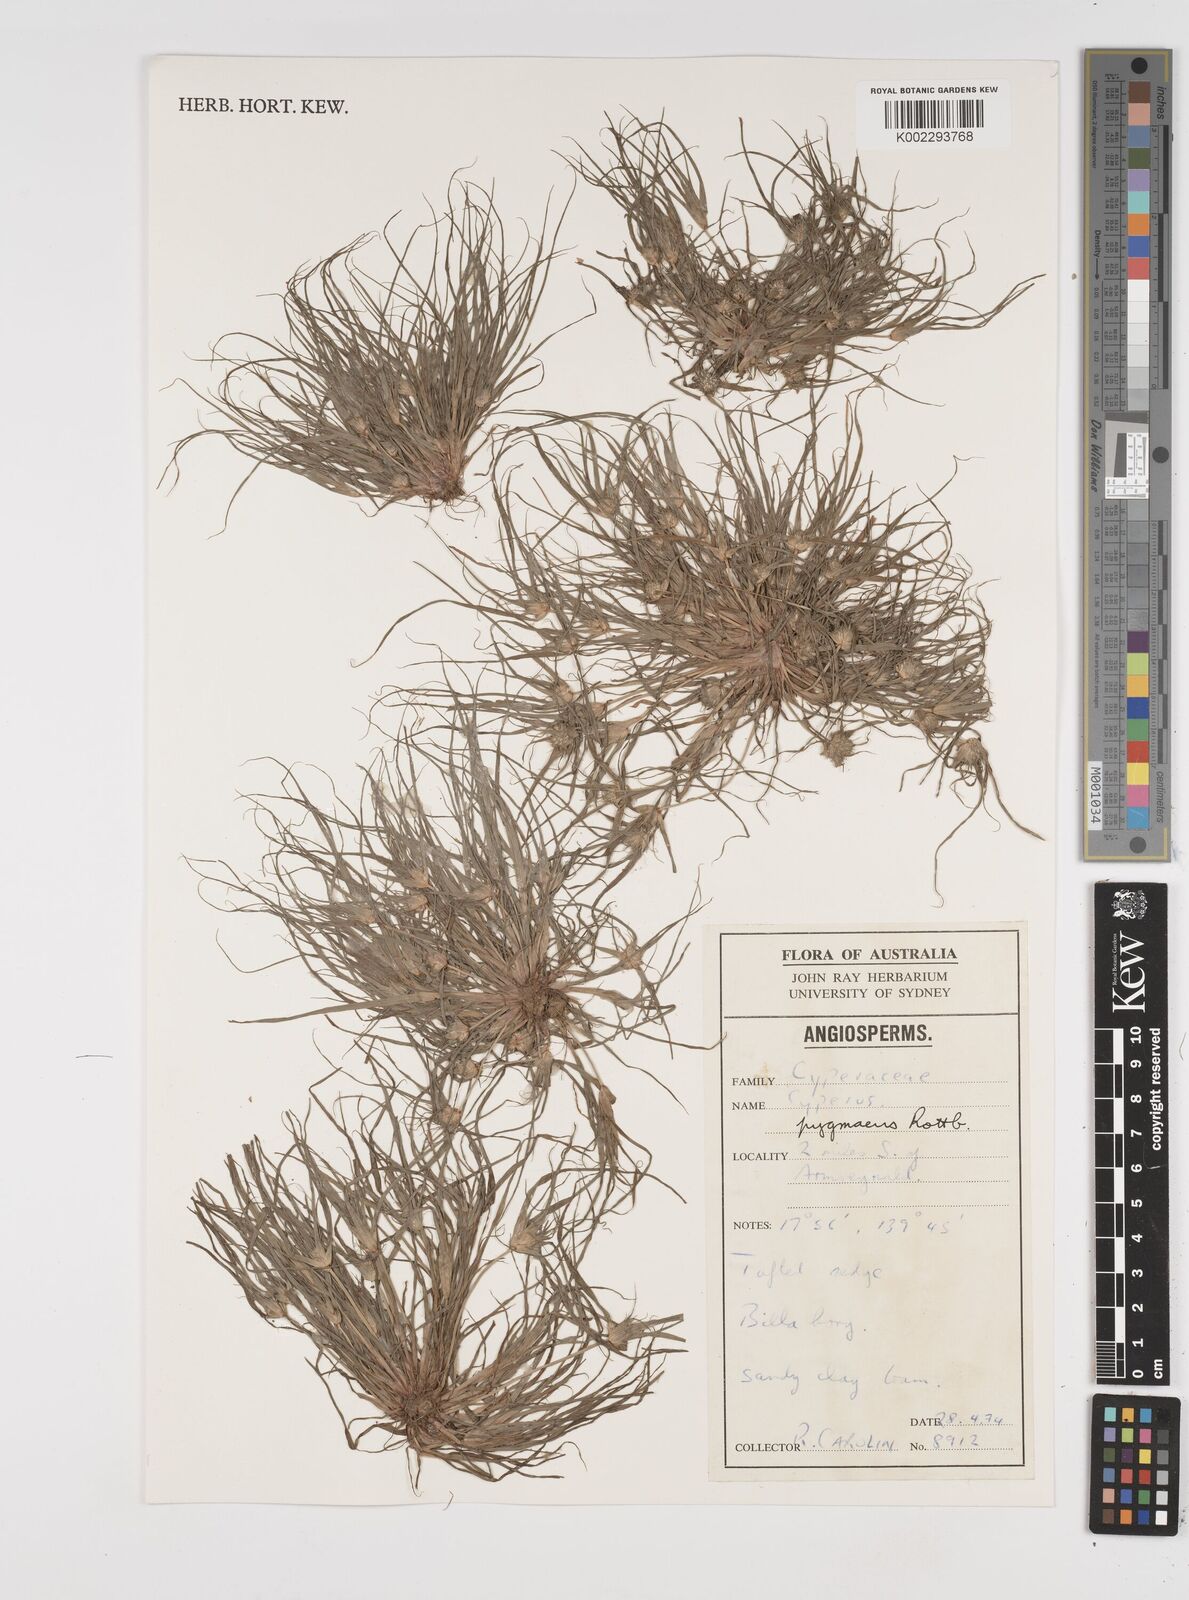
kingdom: Plantae
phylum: Tracheophyta
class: Liliopsida
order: Poales
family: Cyperaceae
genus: Cyperus
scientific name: Cyperus michelianus
